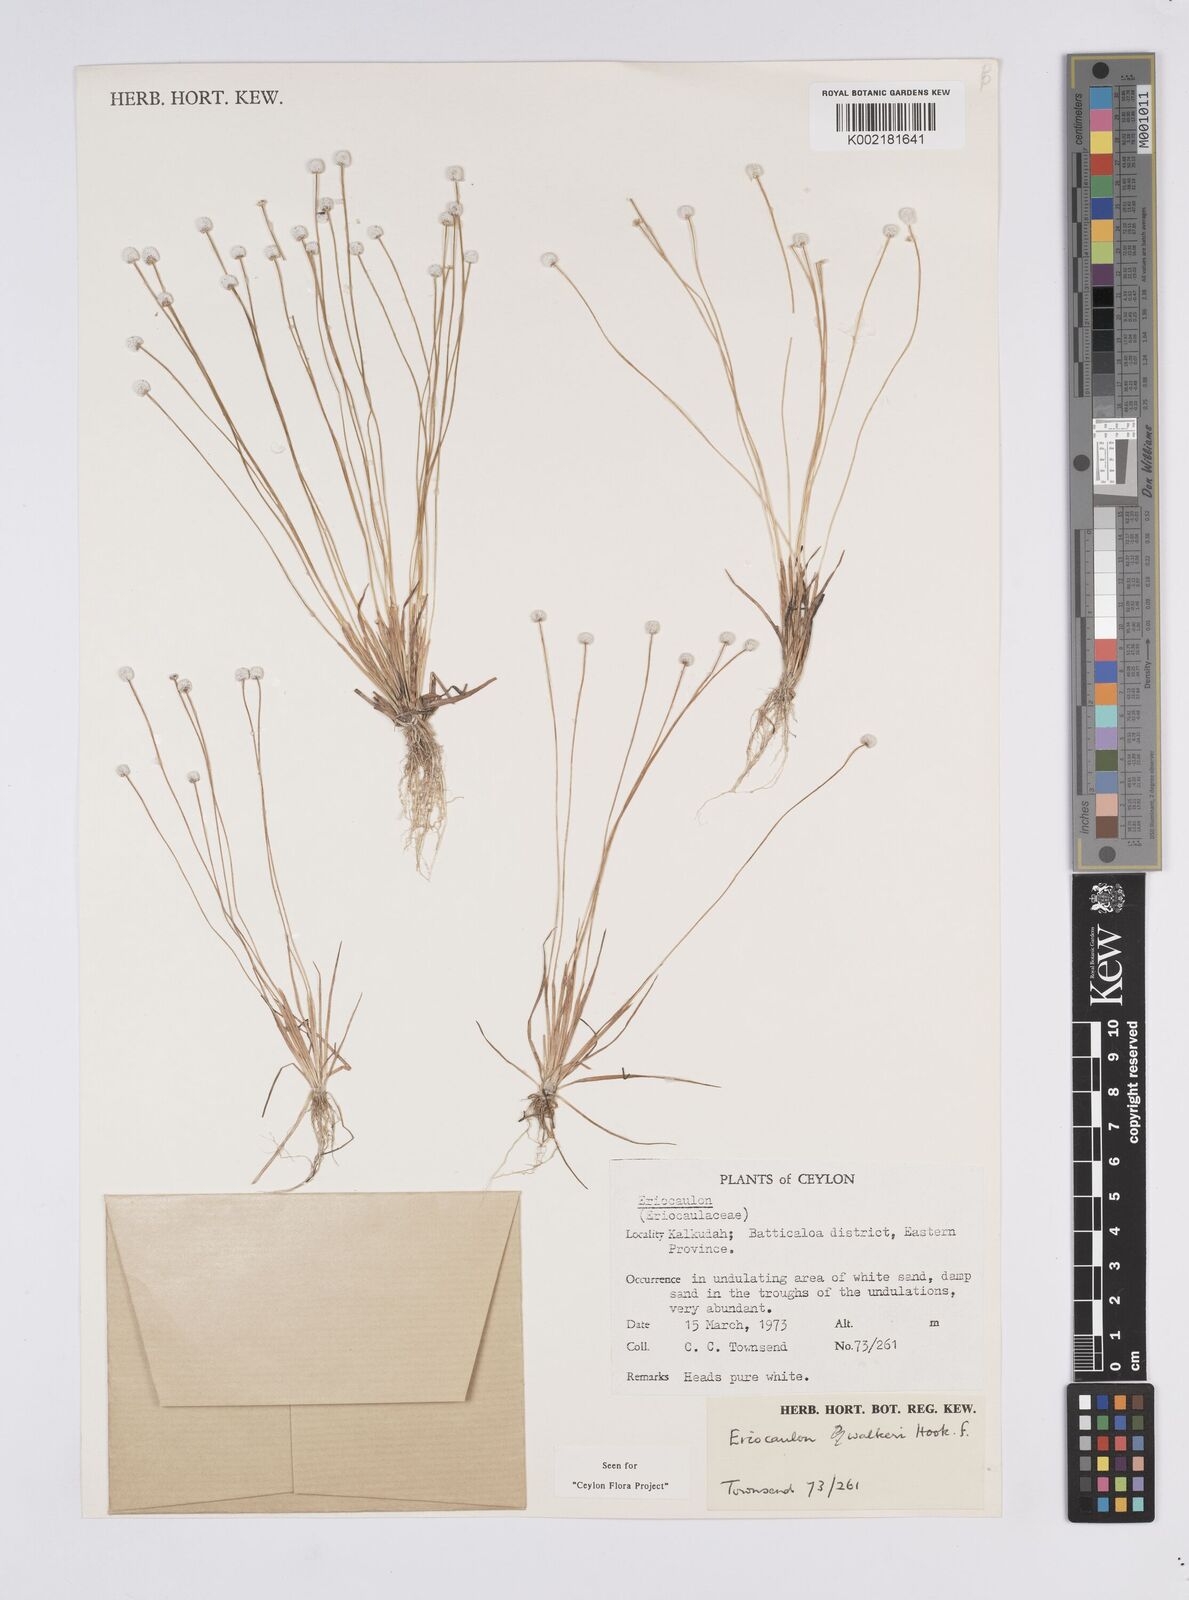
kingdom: Plantae
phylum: Tracheophyta
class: Liliopsida
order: Poales
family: Eriocaulaceae
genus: Eriocaulon
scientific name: Eriocaulon walkeri
